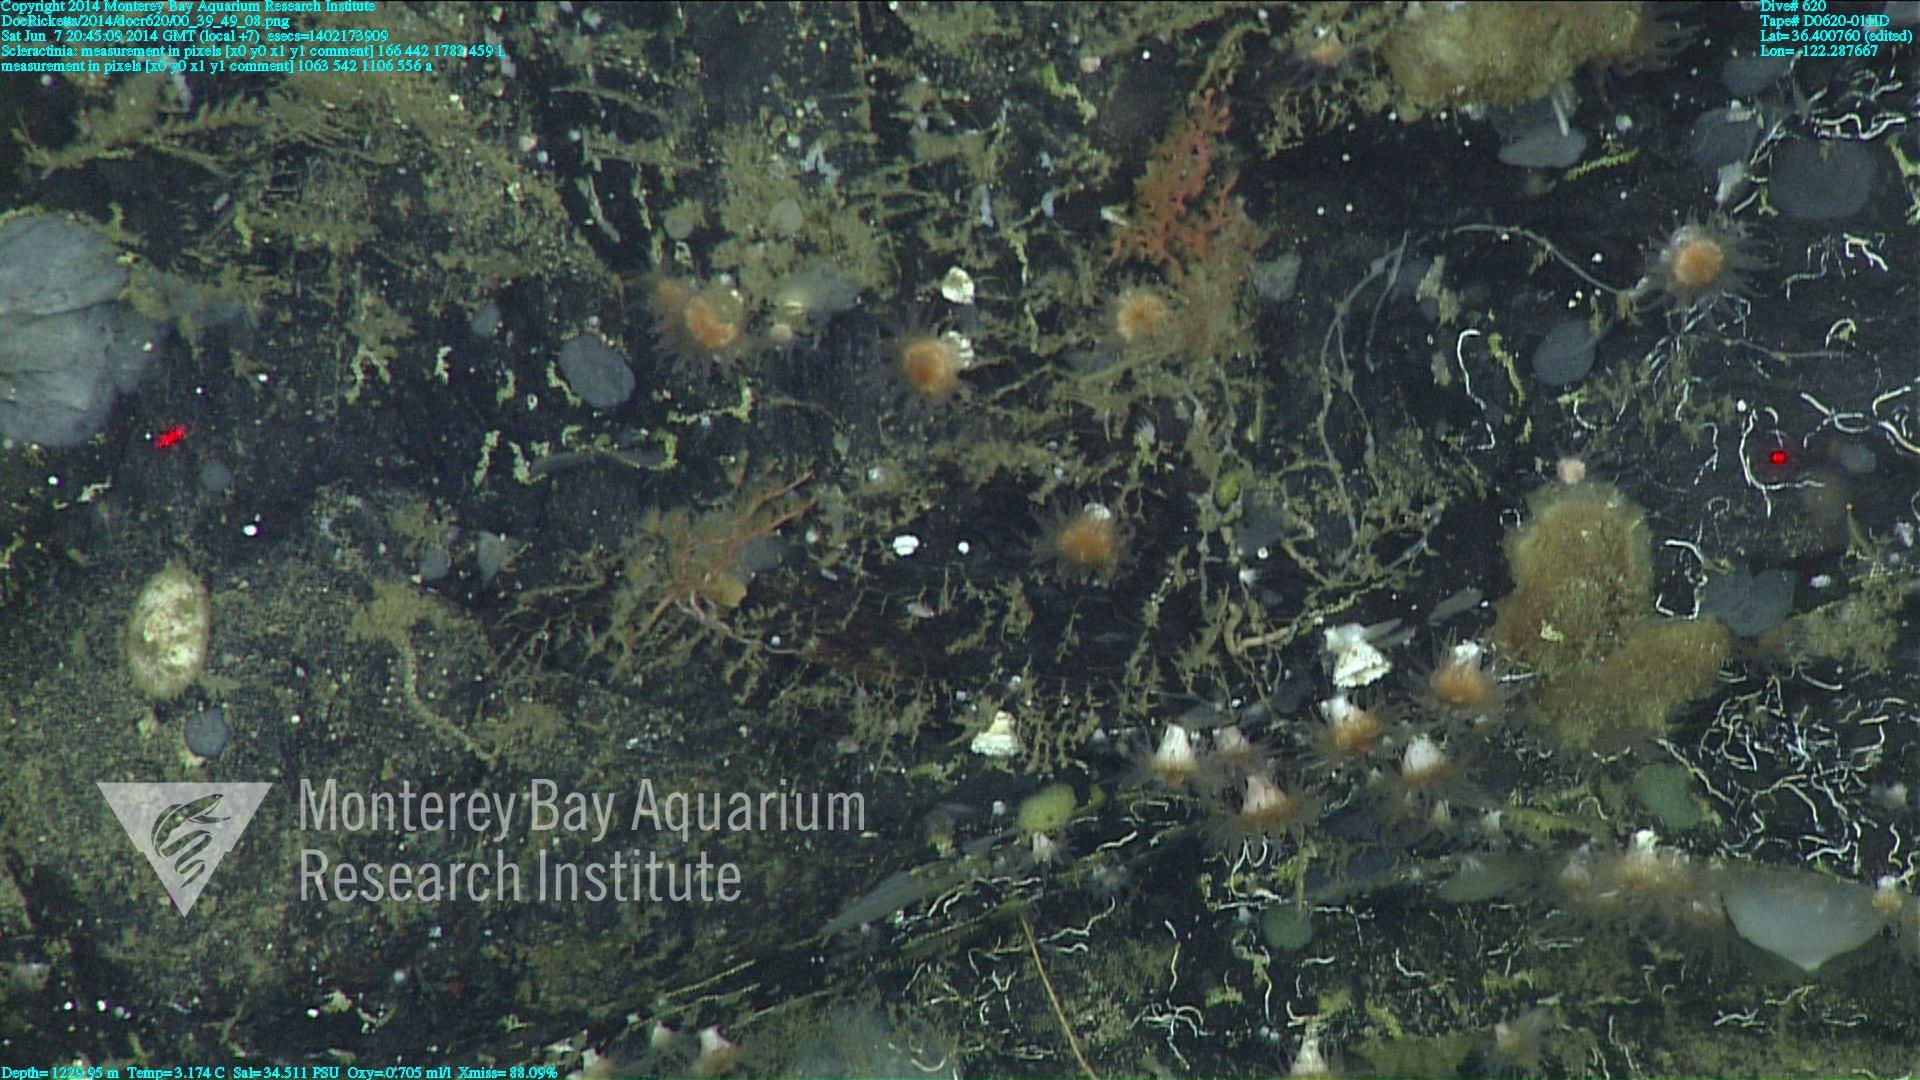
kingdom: Animalia
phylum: Cnidaria
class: Anthozoa
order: Scleractinia
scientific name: Scleractinia
